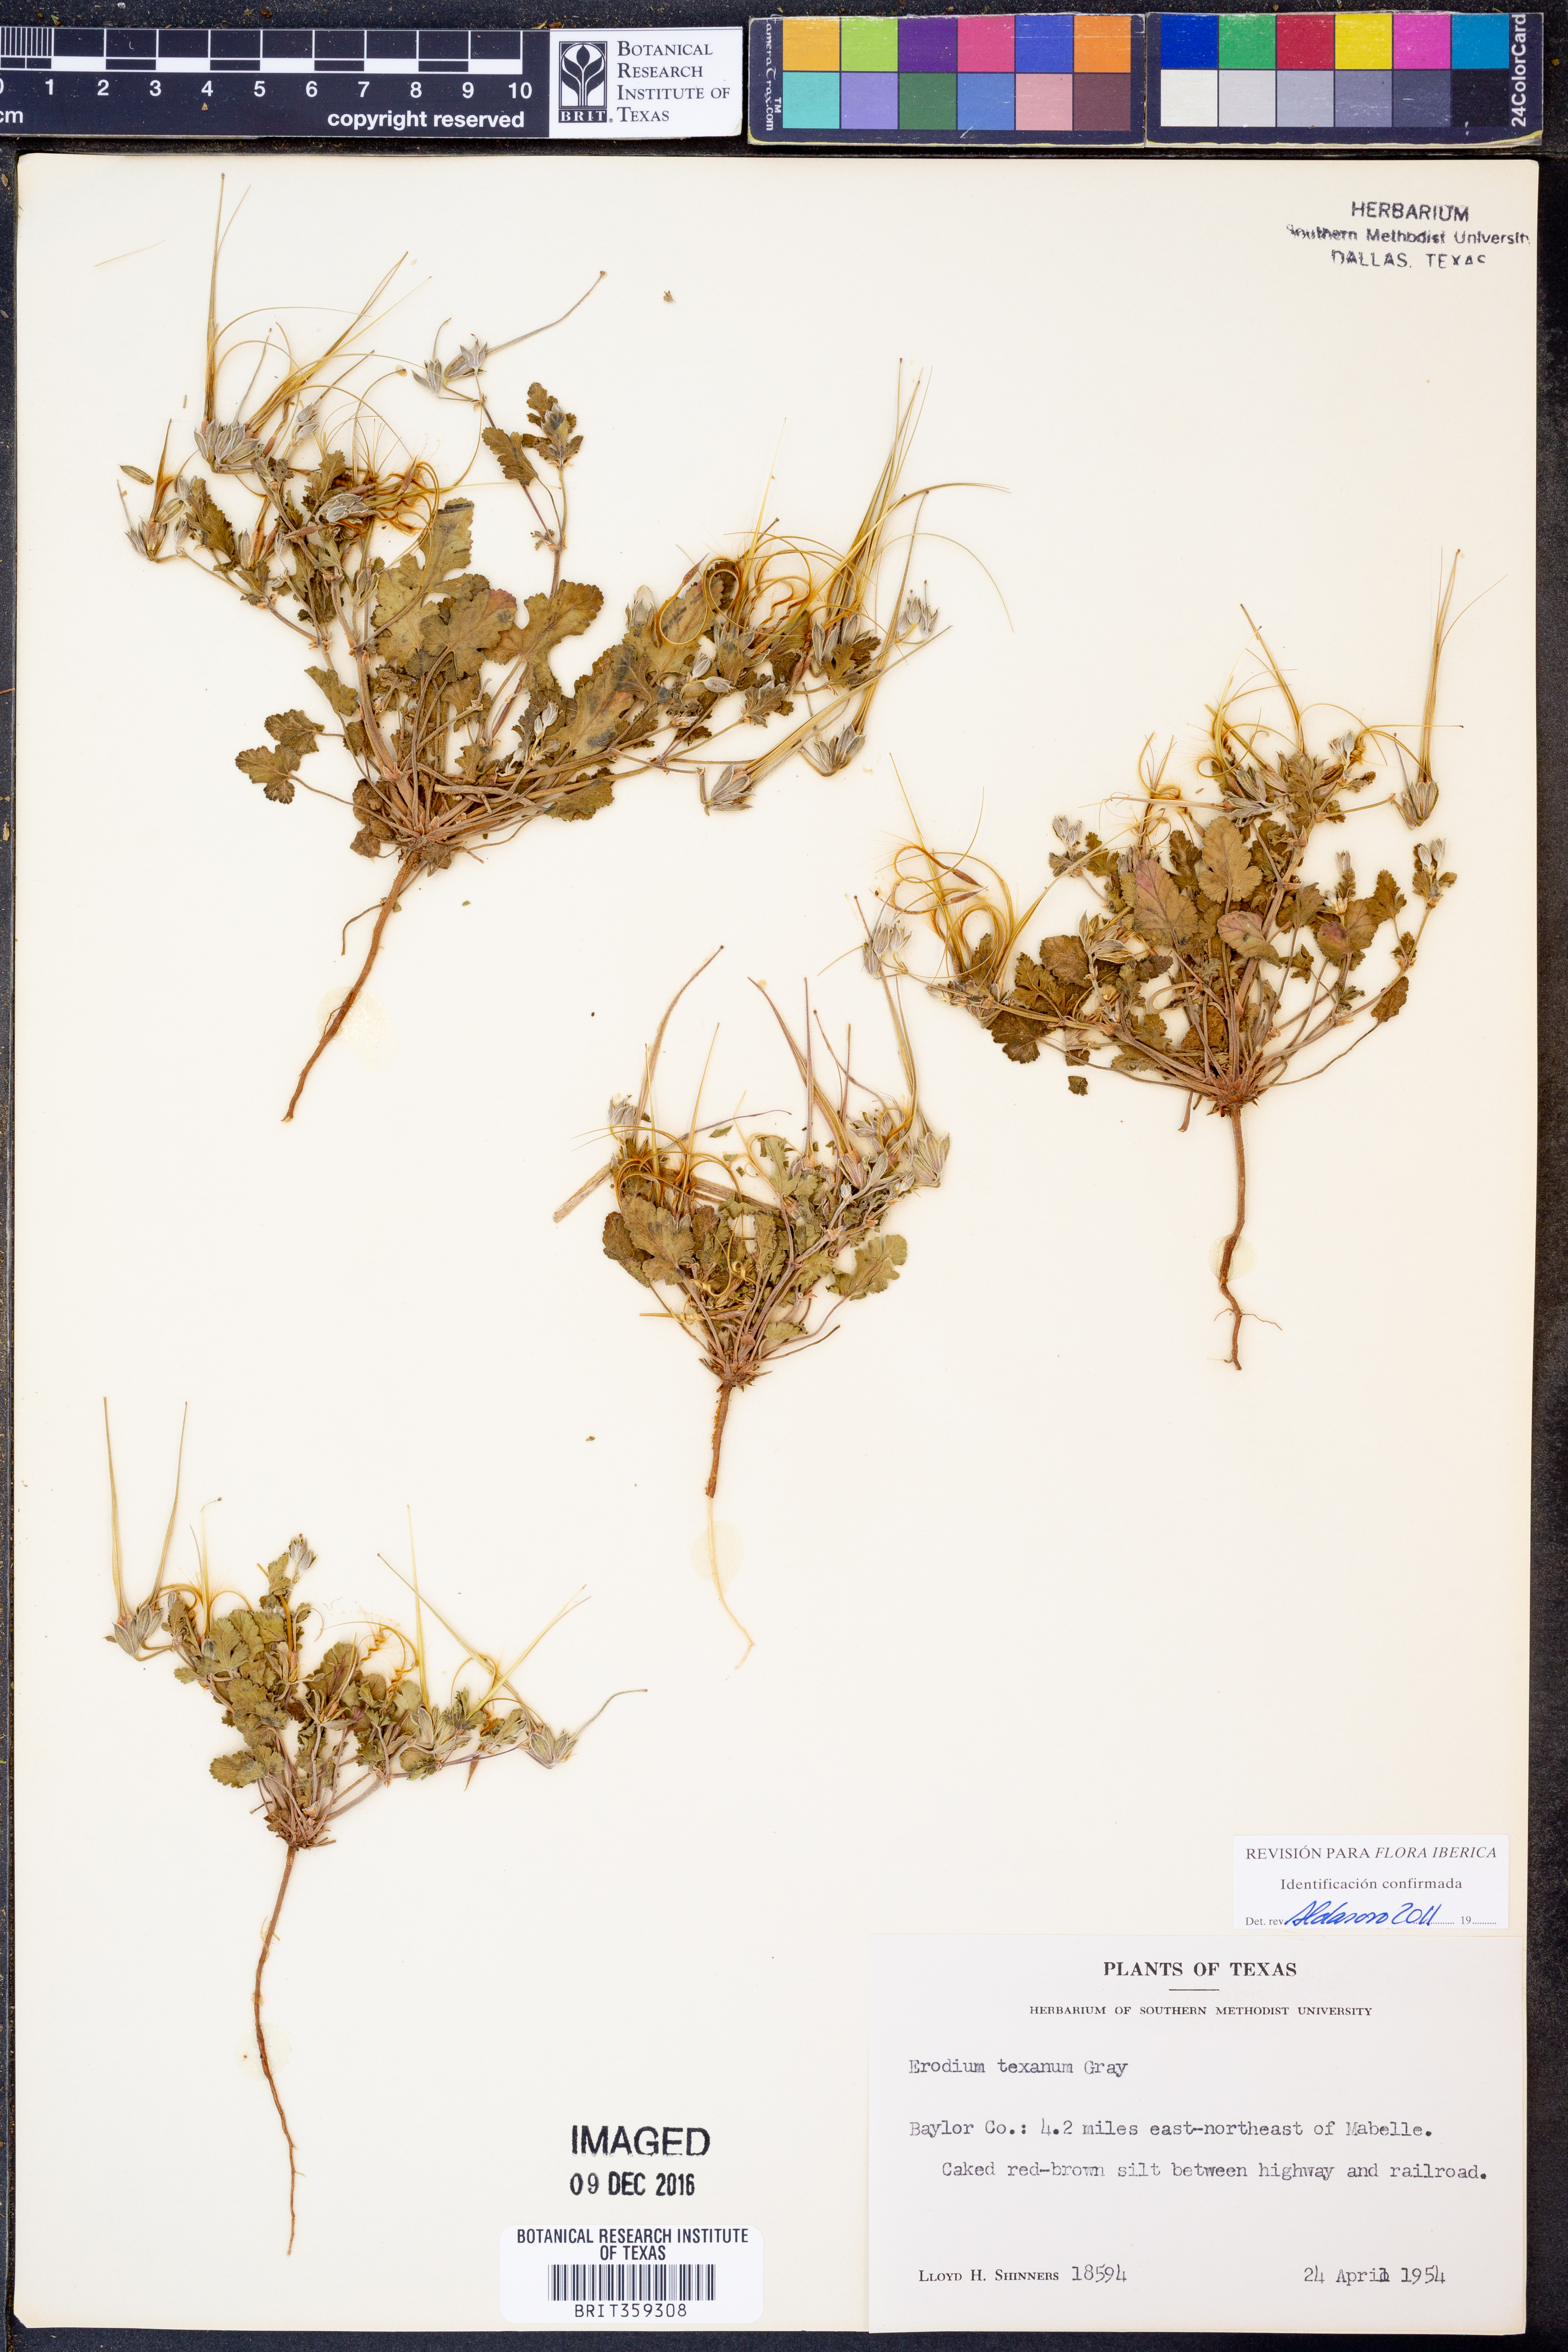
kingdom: Plantae
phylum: Tracheophyta
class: Magnoliopsida
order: Geraniales
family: Geraniaceae
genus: Erodium
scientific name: Erodium texanum
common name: Texas stork's-bill
